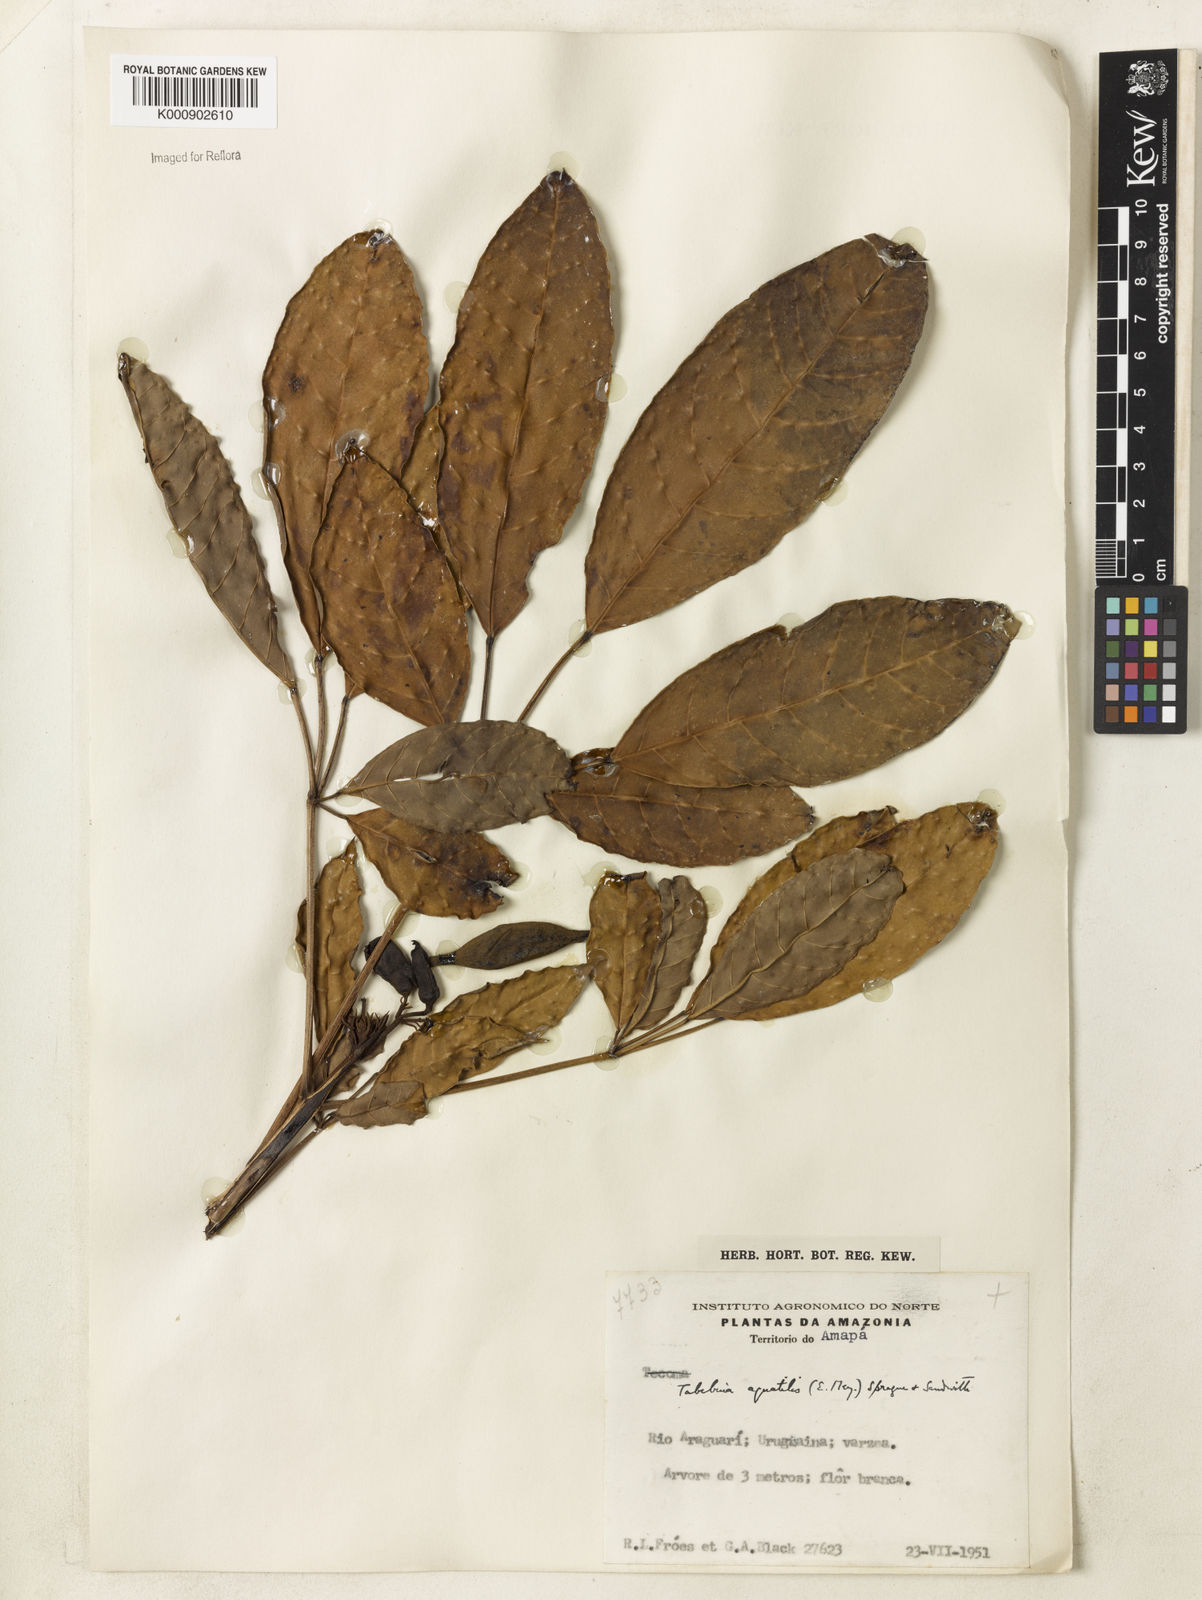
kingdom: Plantae
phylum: Tracheophyta
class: Magnoliopsida
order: Lamiales
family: Bignoniaceae
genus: Tabebuia
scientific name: Tabebuia fluviatilis
